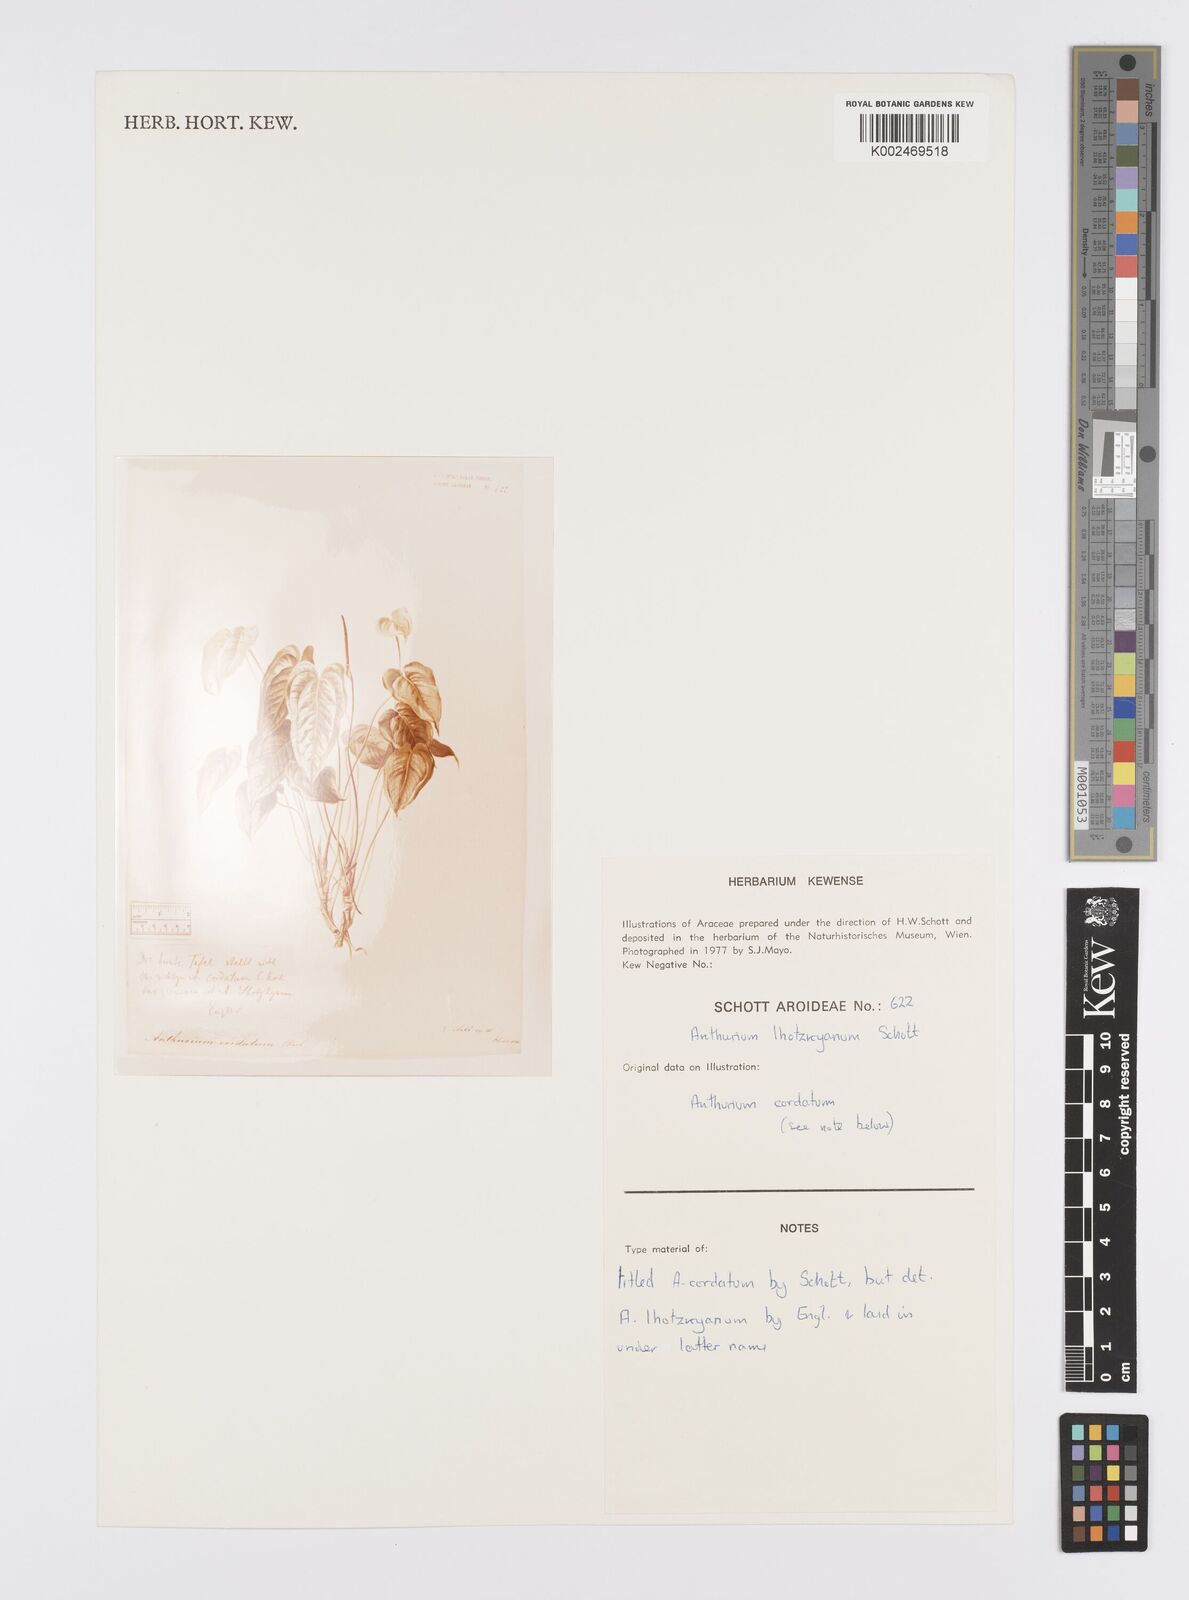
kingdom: Plantae
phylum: Tracheophyta
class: Liliopsida
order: Alismatales
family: Araceae
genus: Anthurium
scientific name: Anthurium augustinum
